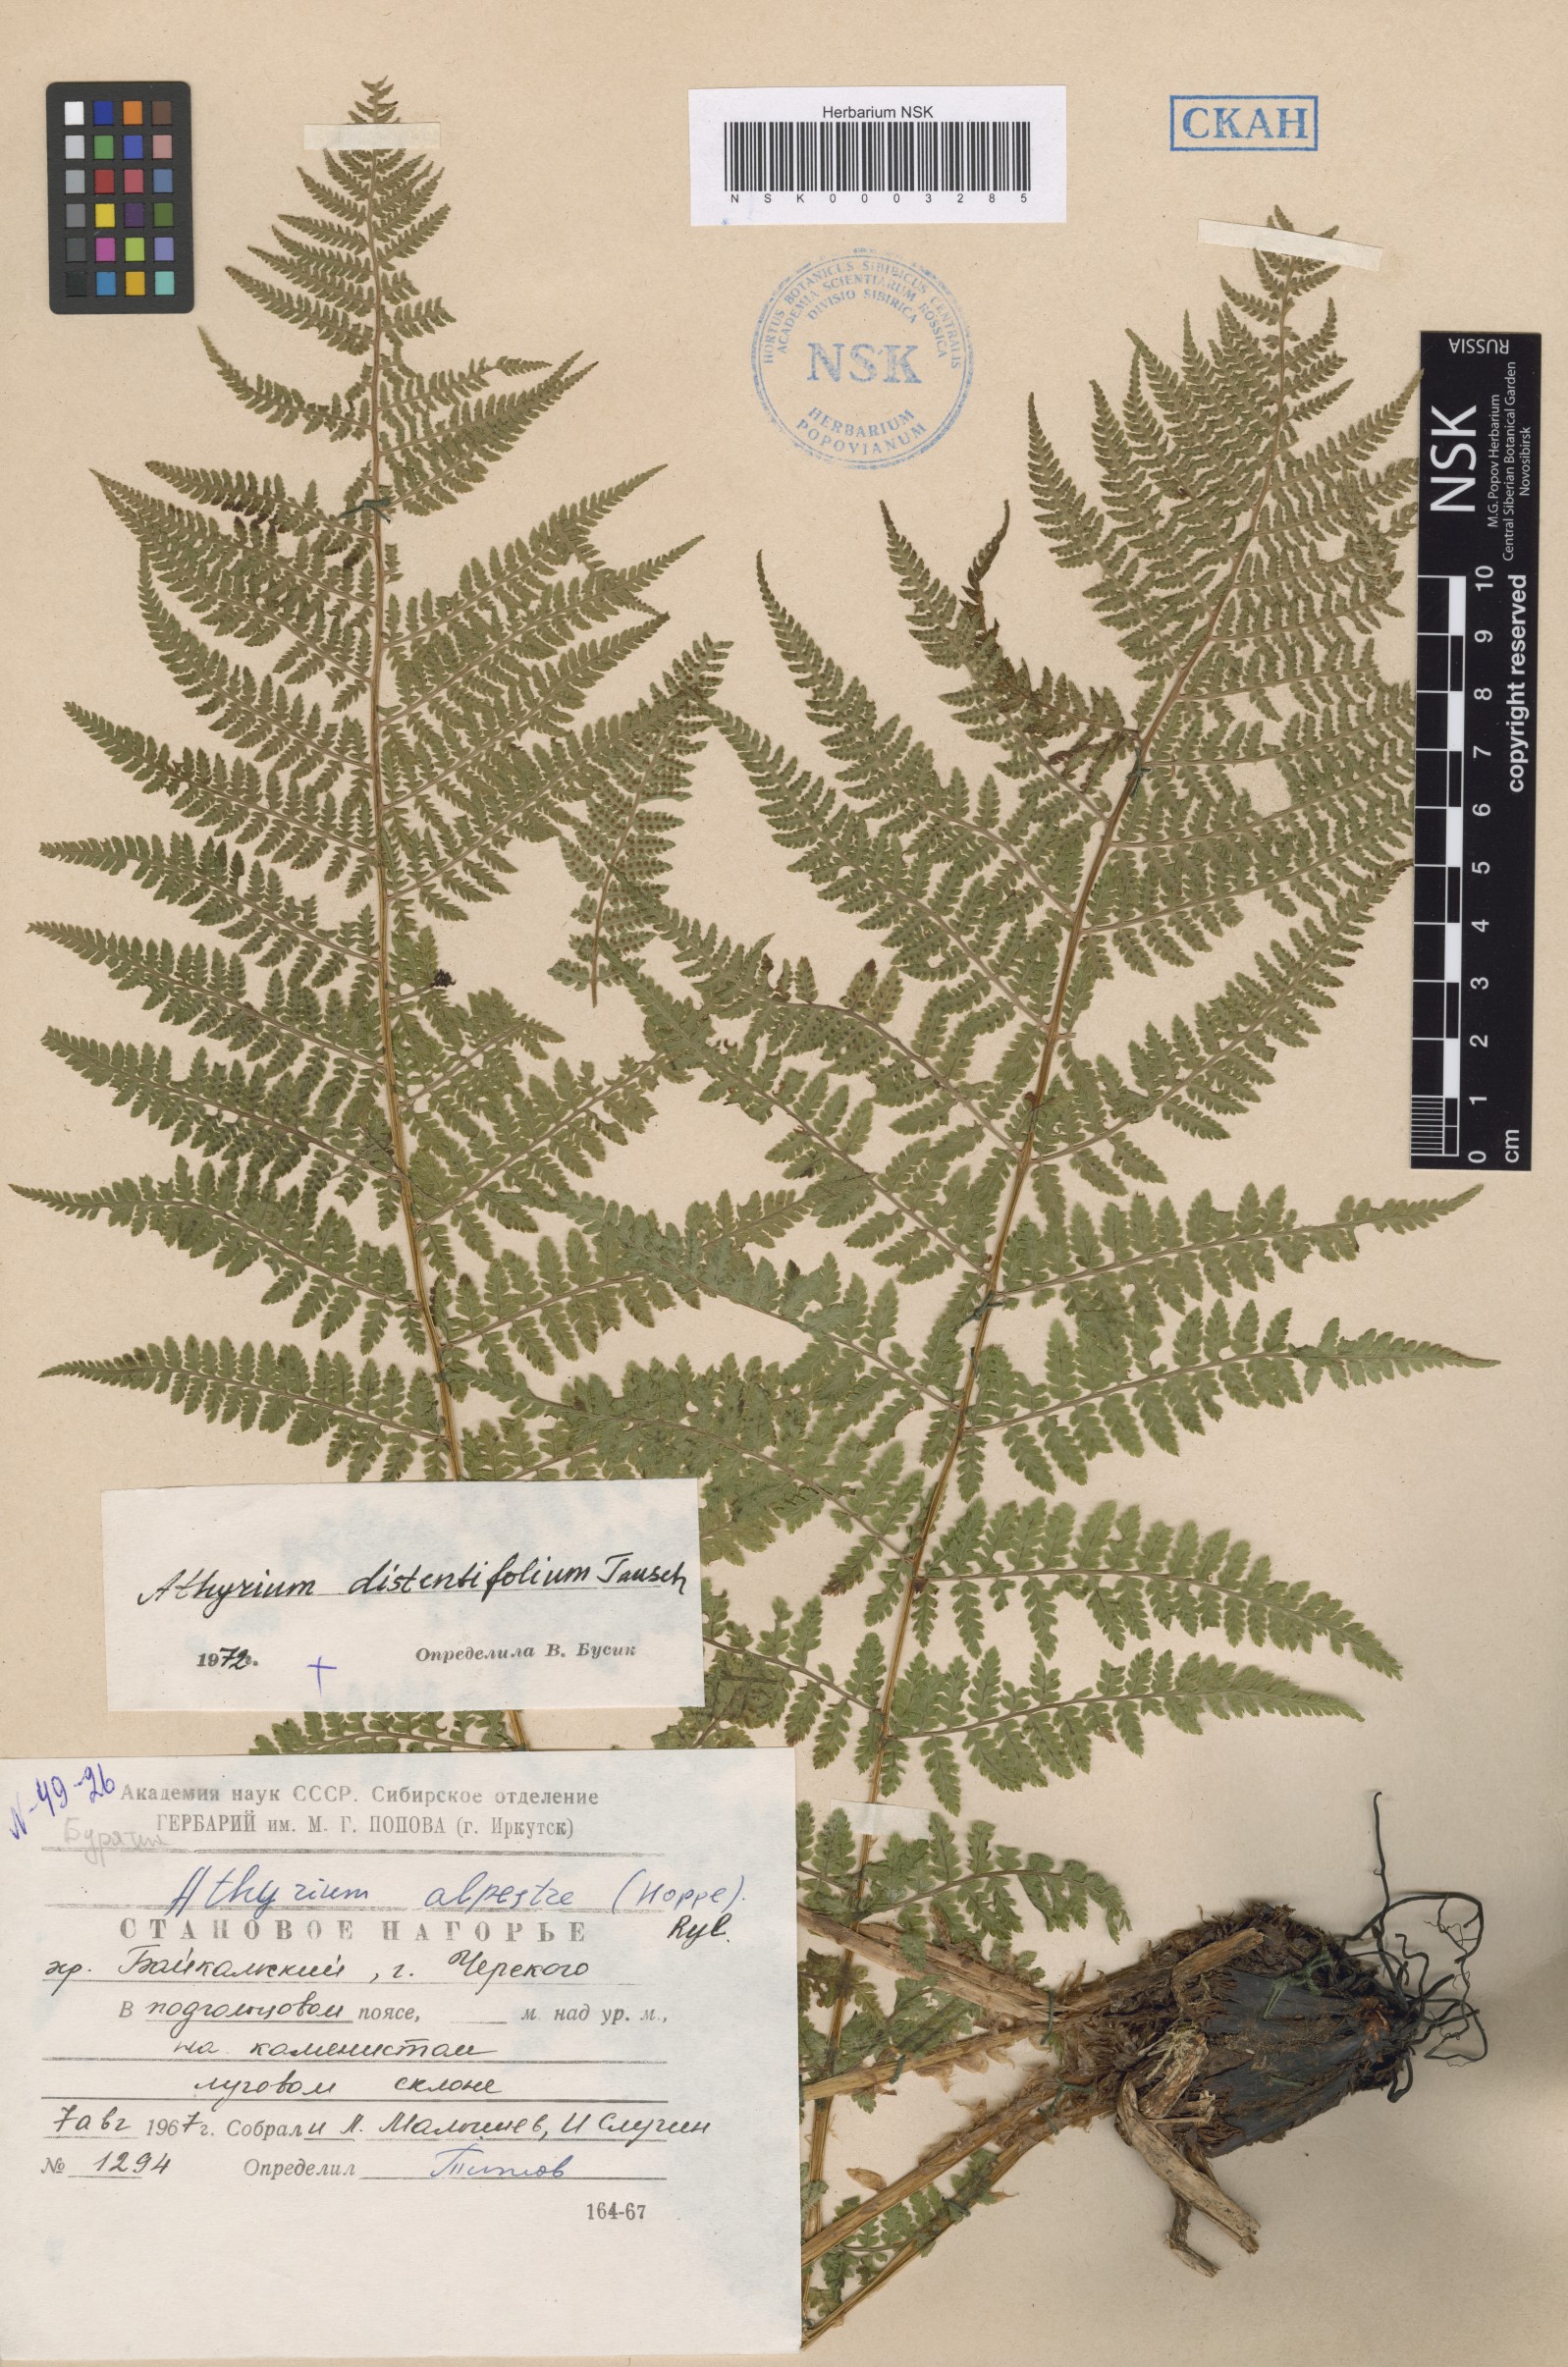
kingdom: Plantae
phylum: Tracheophyta
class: Polypodiopsida
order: Polypodiales
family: Athyriaceae
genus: Pseudathyrium
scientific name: Pseudathyrium alpestre
